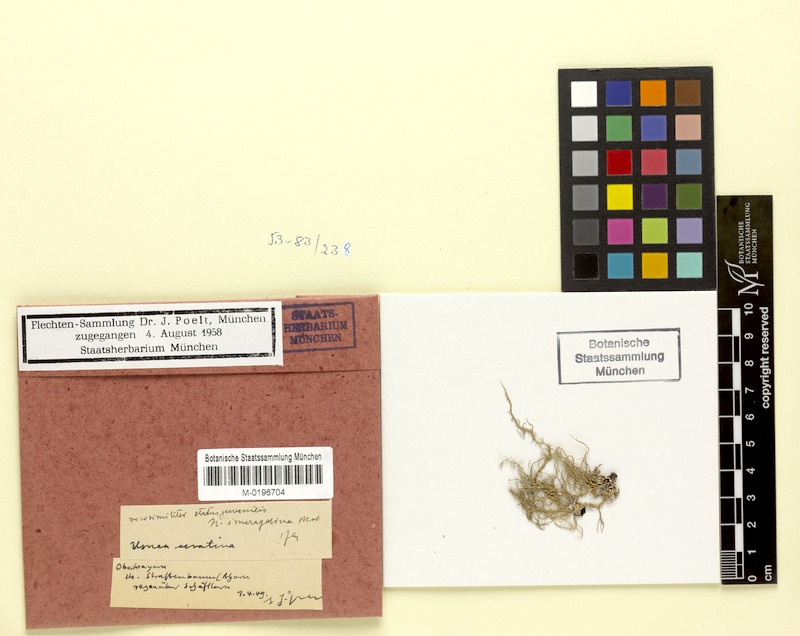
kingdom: Fungi
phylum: Ascomycota
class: Lecanoromycetes
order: Lecanorales
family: Parmeliaceae
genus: Usnea
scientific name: Usnea intermedia
